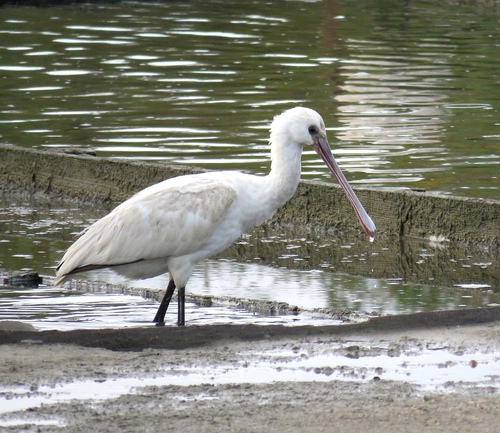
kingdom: Animalia
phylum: Chordata
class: Aves
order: Pelecaniformes
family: Threskiornithidae
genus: Platalea
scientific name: Platalea leucorodia
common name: Eurasian spoonbill
